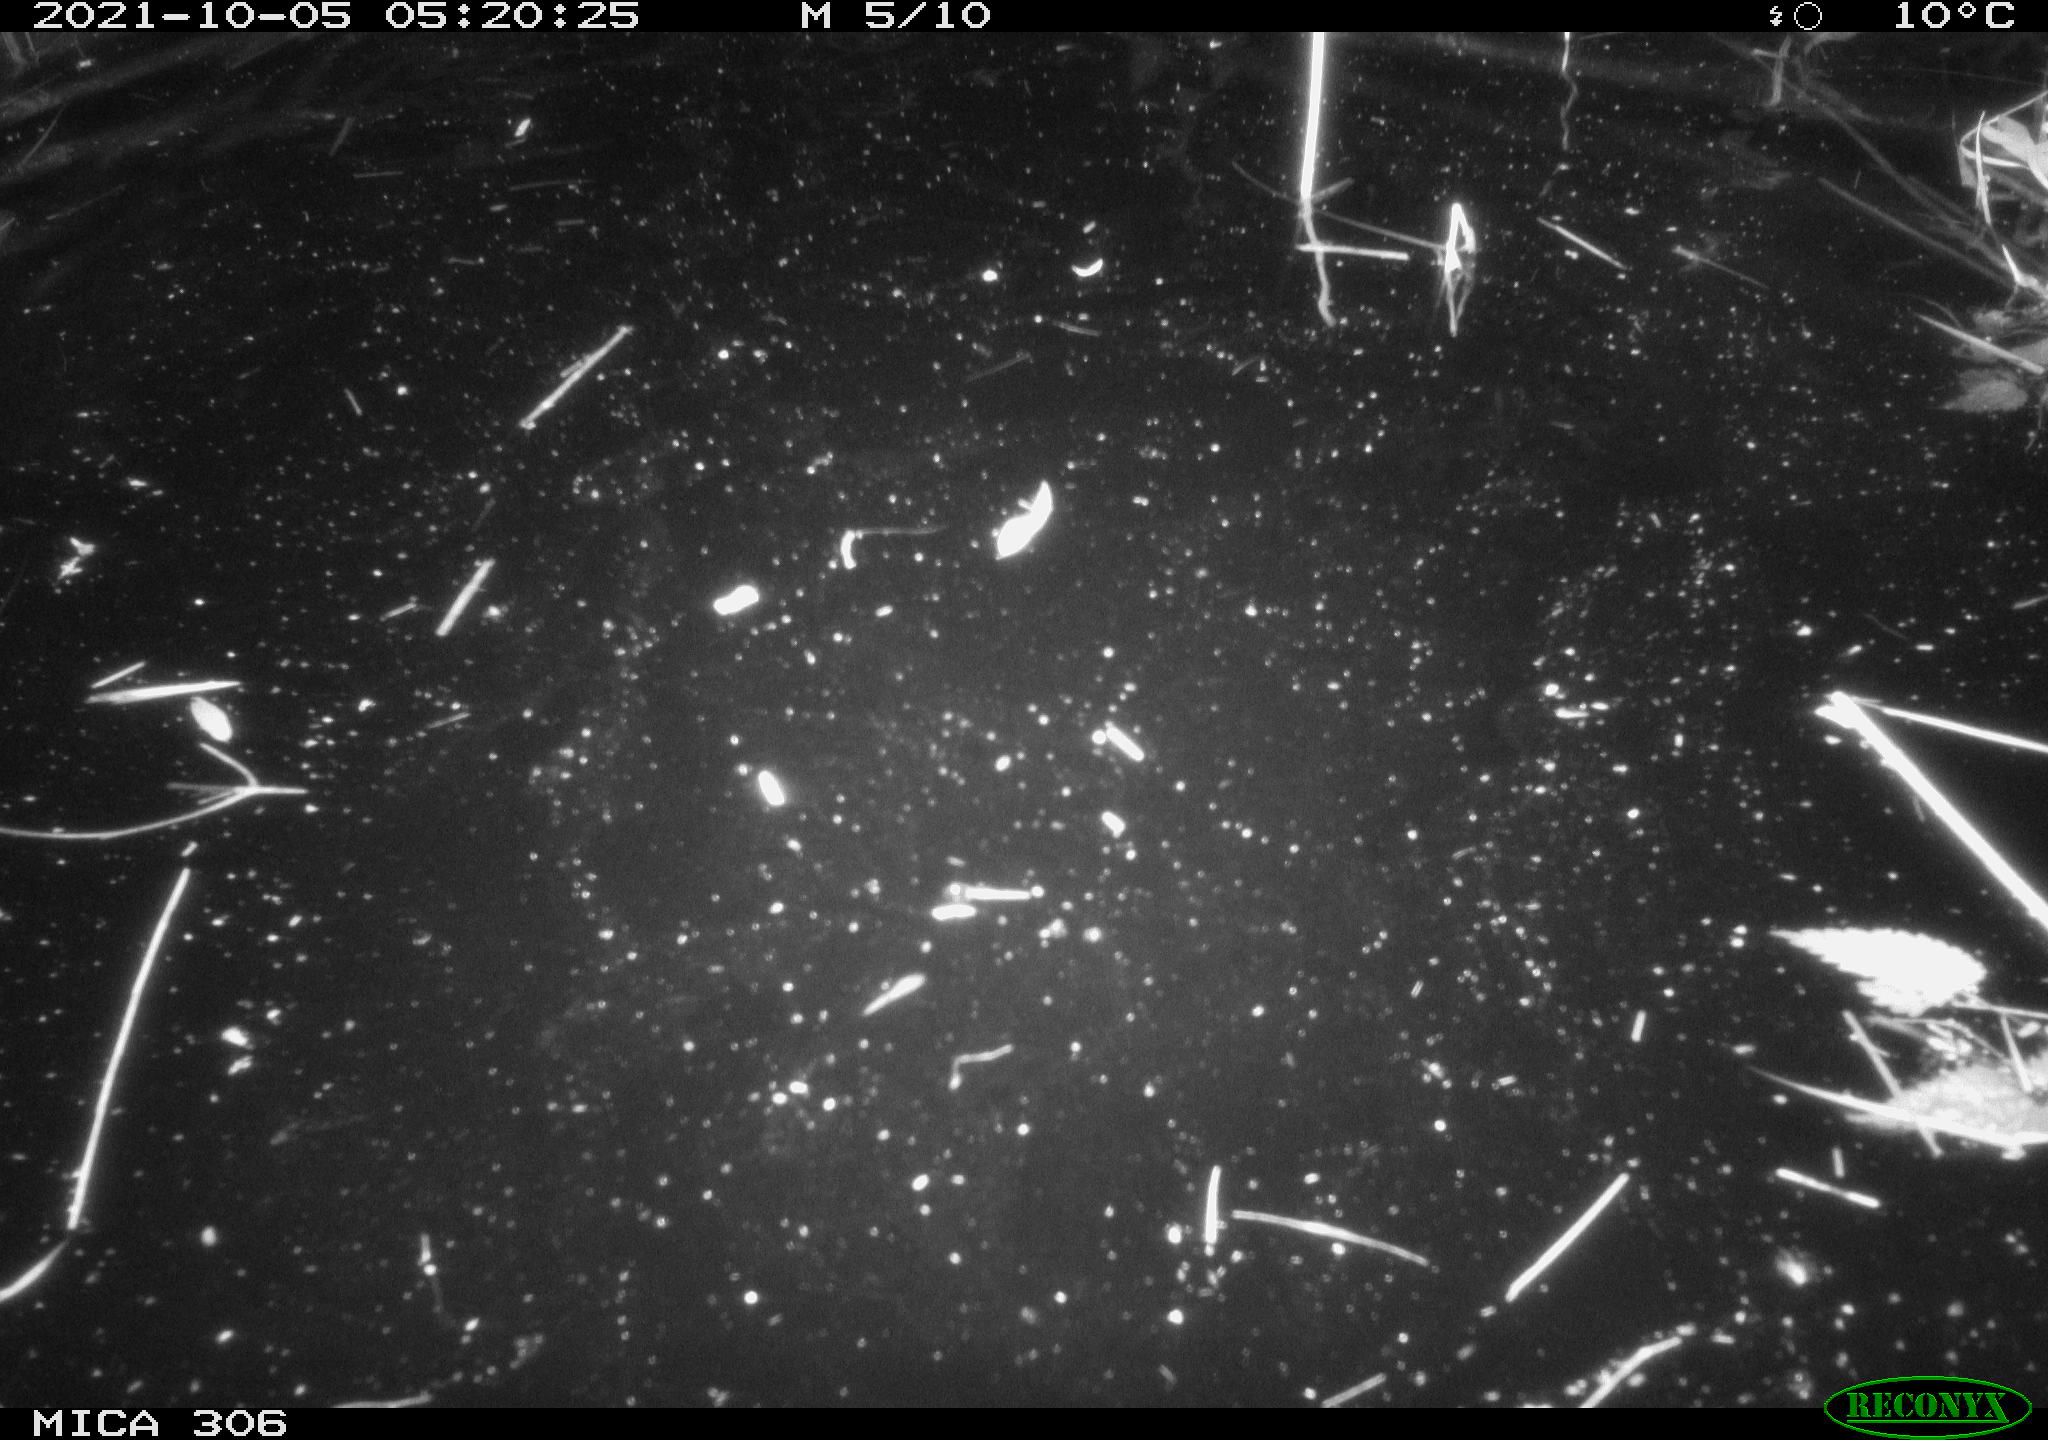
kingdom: Animalia
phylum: Chordata
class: Mammalia
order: Rodentia
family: Cricetidae
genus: Ondatra
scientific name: Ondatra zibethicus
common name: Muskrat
